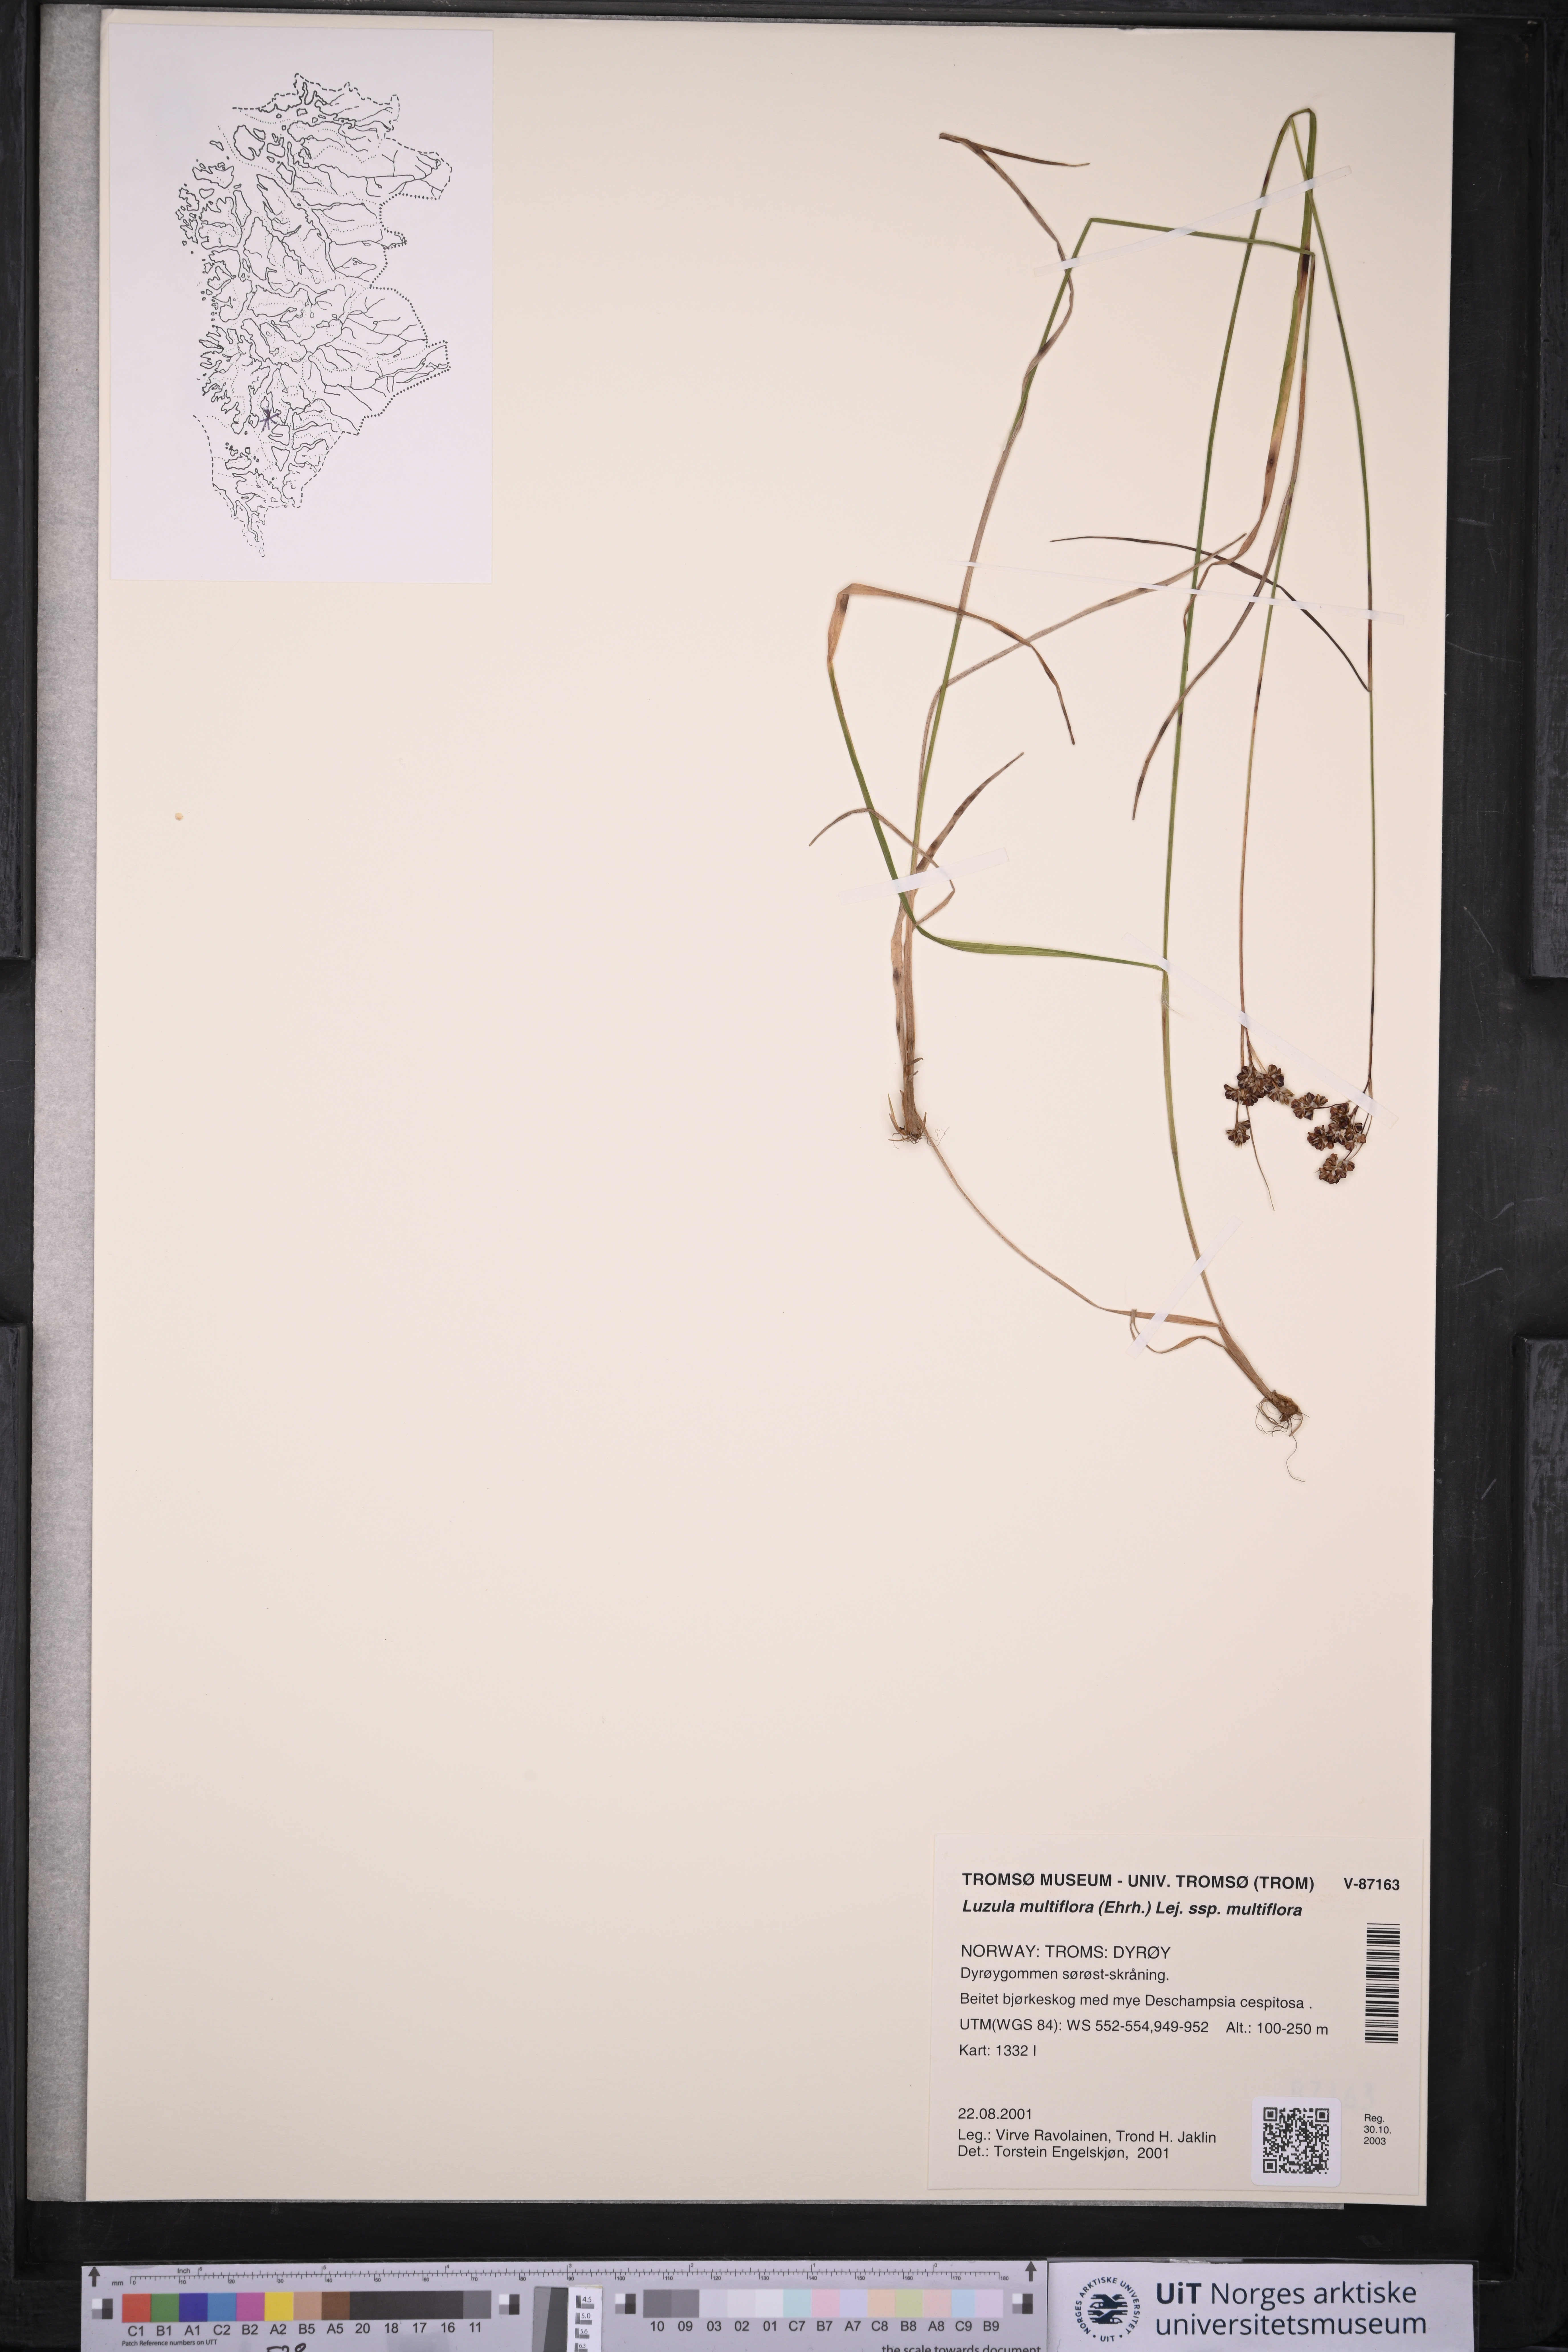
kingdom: Plantae
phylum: Tracheophyta
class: Liliopsida
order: Poales
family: Juncaceae
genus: Luzula
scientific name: Luzula multiflora
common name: Heath wood-rush
